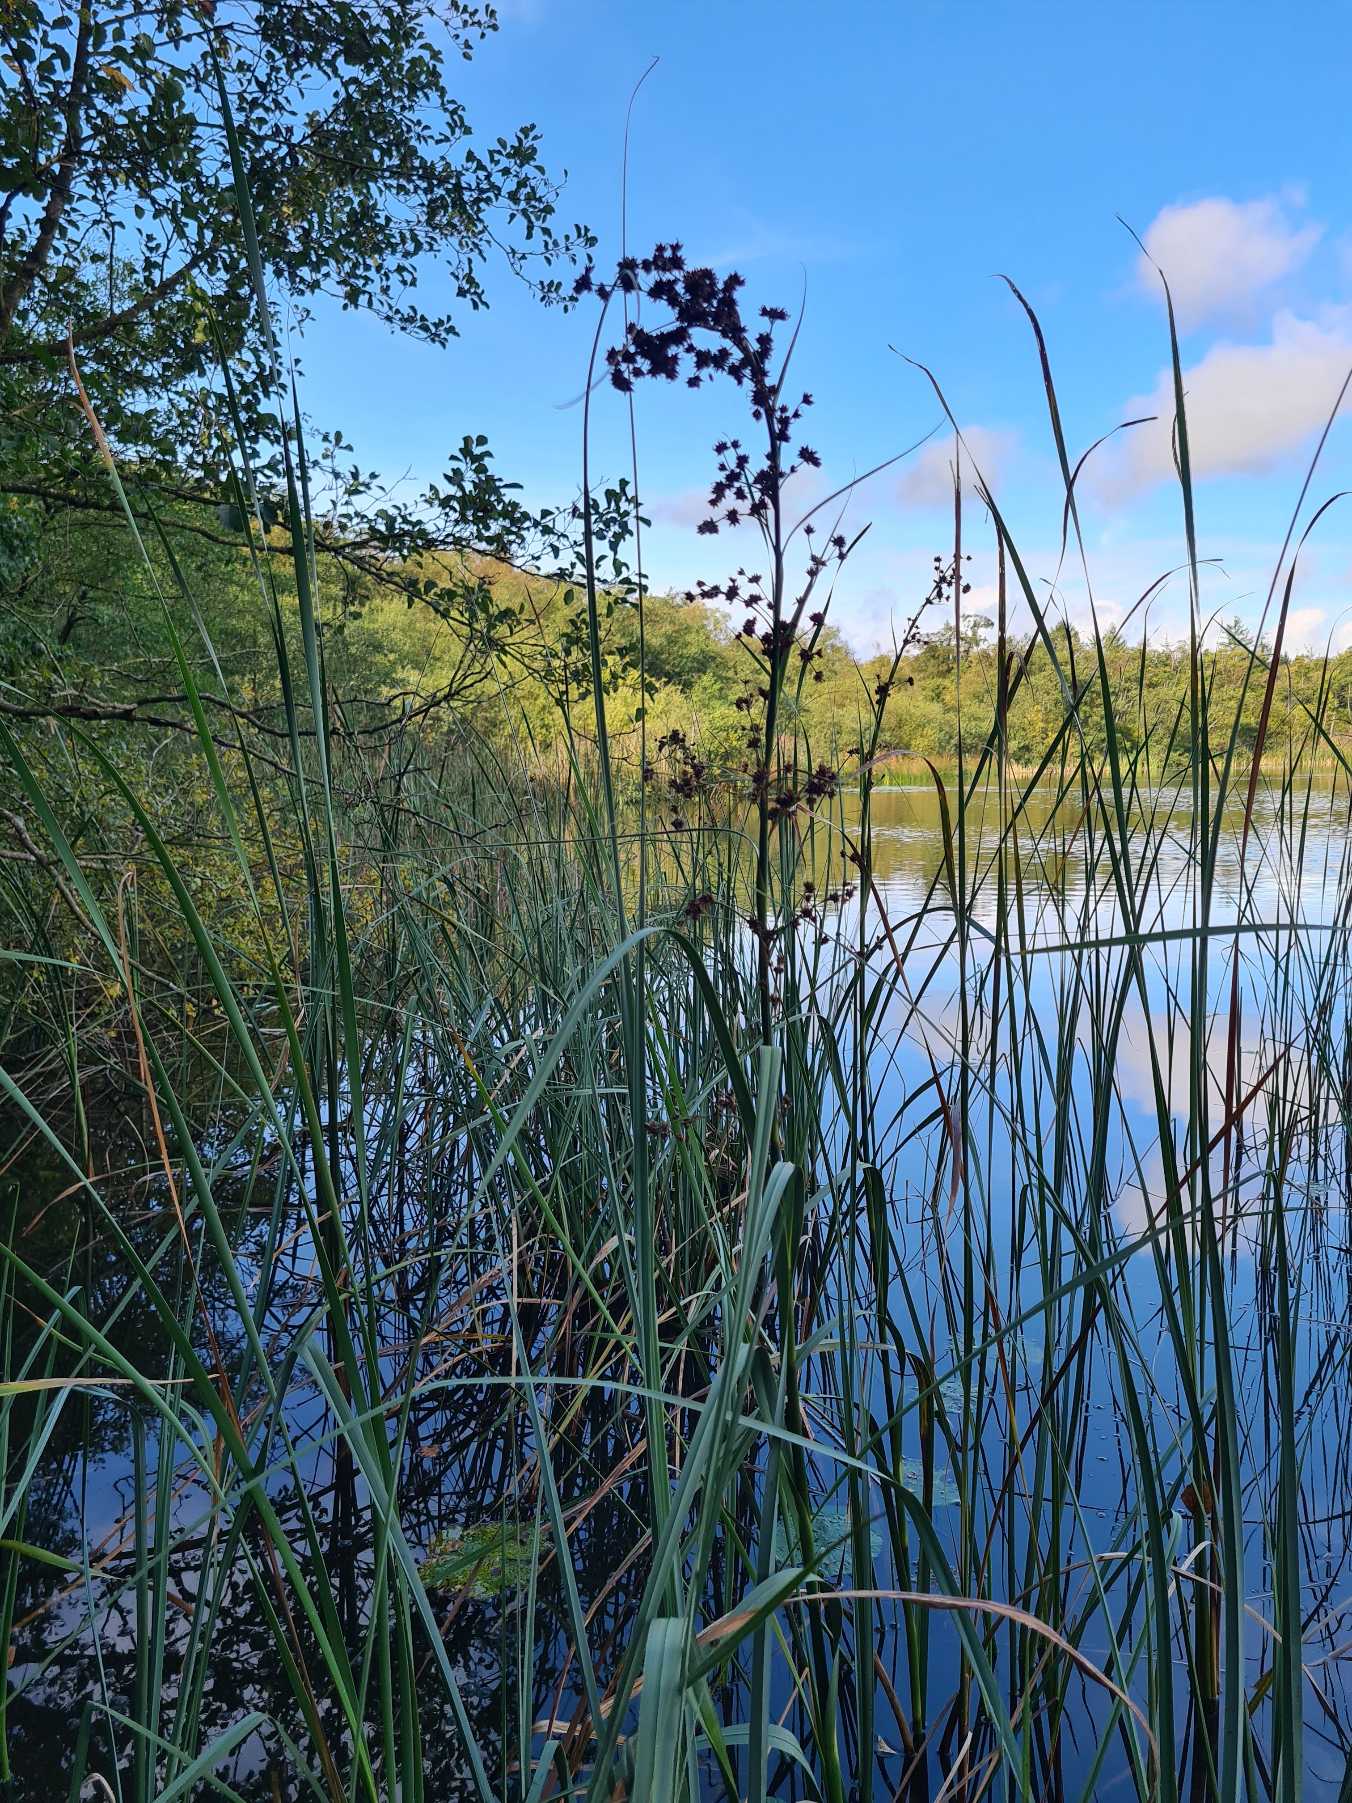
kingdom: Plantae
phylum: Tracheophyta
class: Liliopsida
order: Poales
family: Cyperaceae
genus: Cladium
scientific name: Cladium mariscus
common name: Hvas avneknippe
